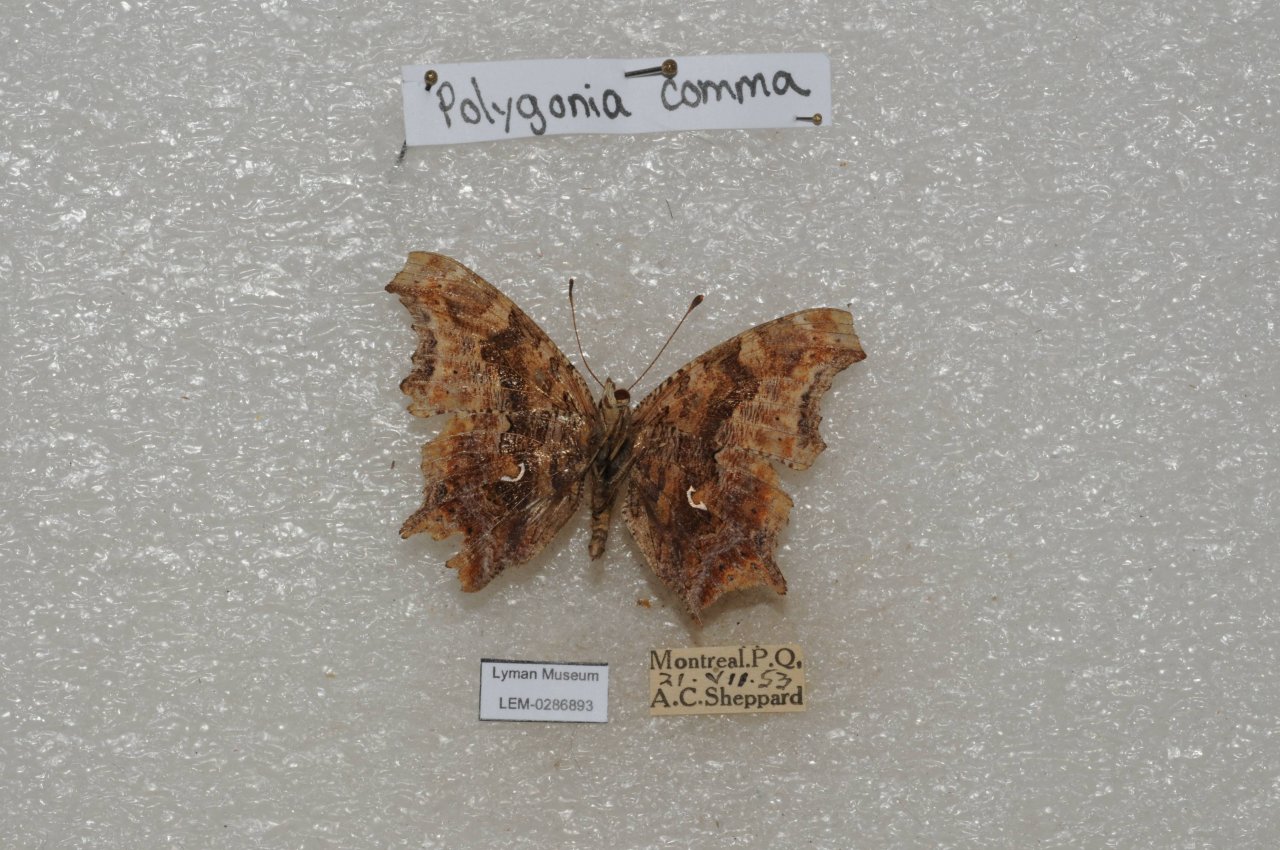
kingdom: Animalia
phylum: Arthropoda
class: Insecta
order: Lepidoptera
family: Nymphalidae
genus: Polygonia
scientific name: Polygonia comma
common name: Eastern Comma
